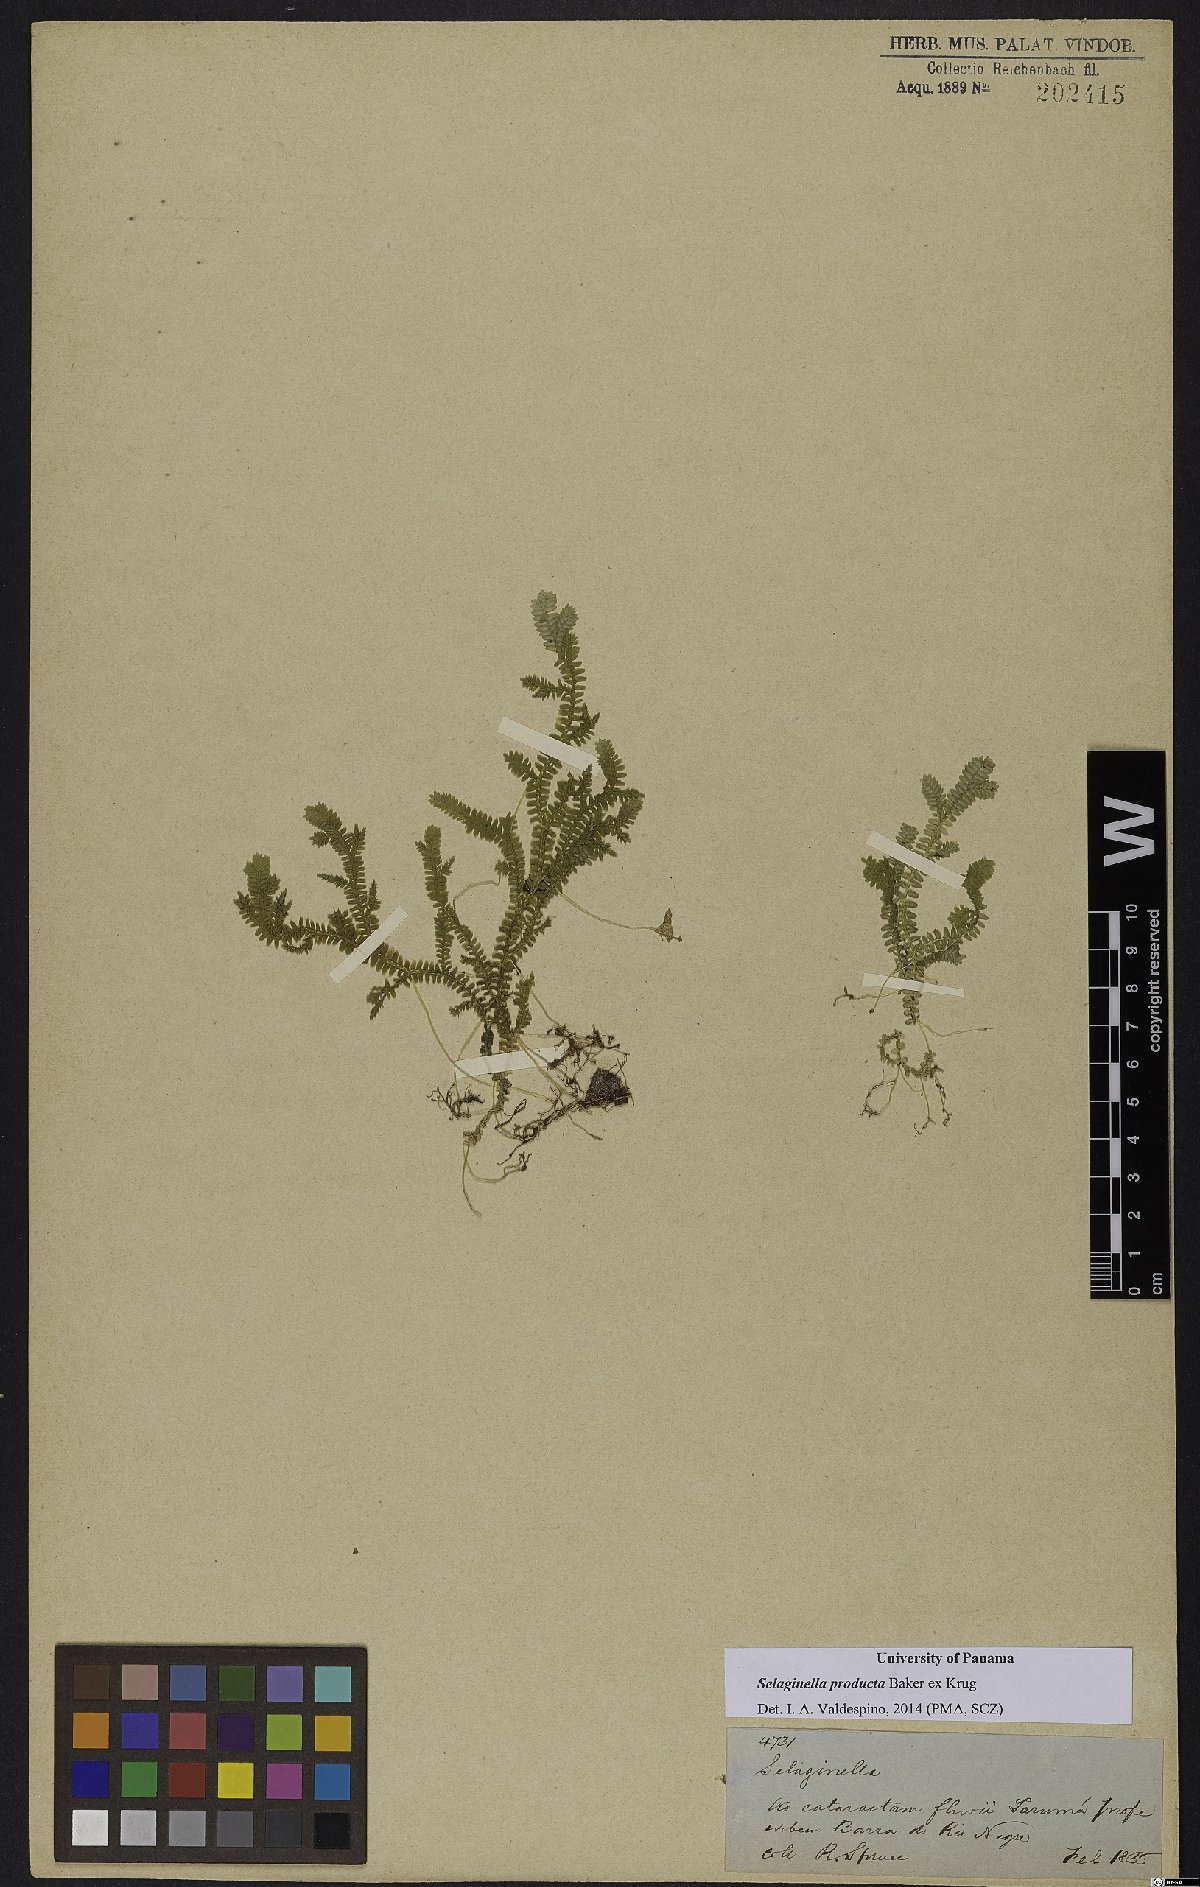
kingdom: Plantae
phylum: Tracheophyta
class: Lycopodiopsida
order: Selaginellales
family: Selaginellaceae
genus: Selaginella
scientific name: Selaginella producta
